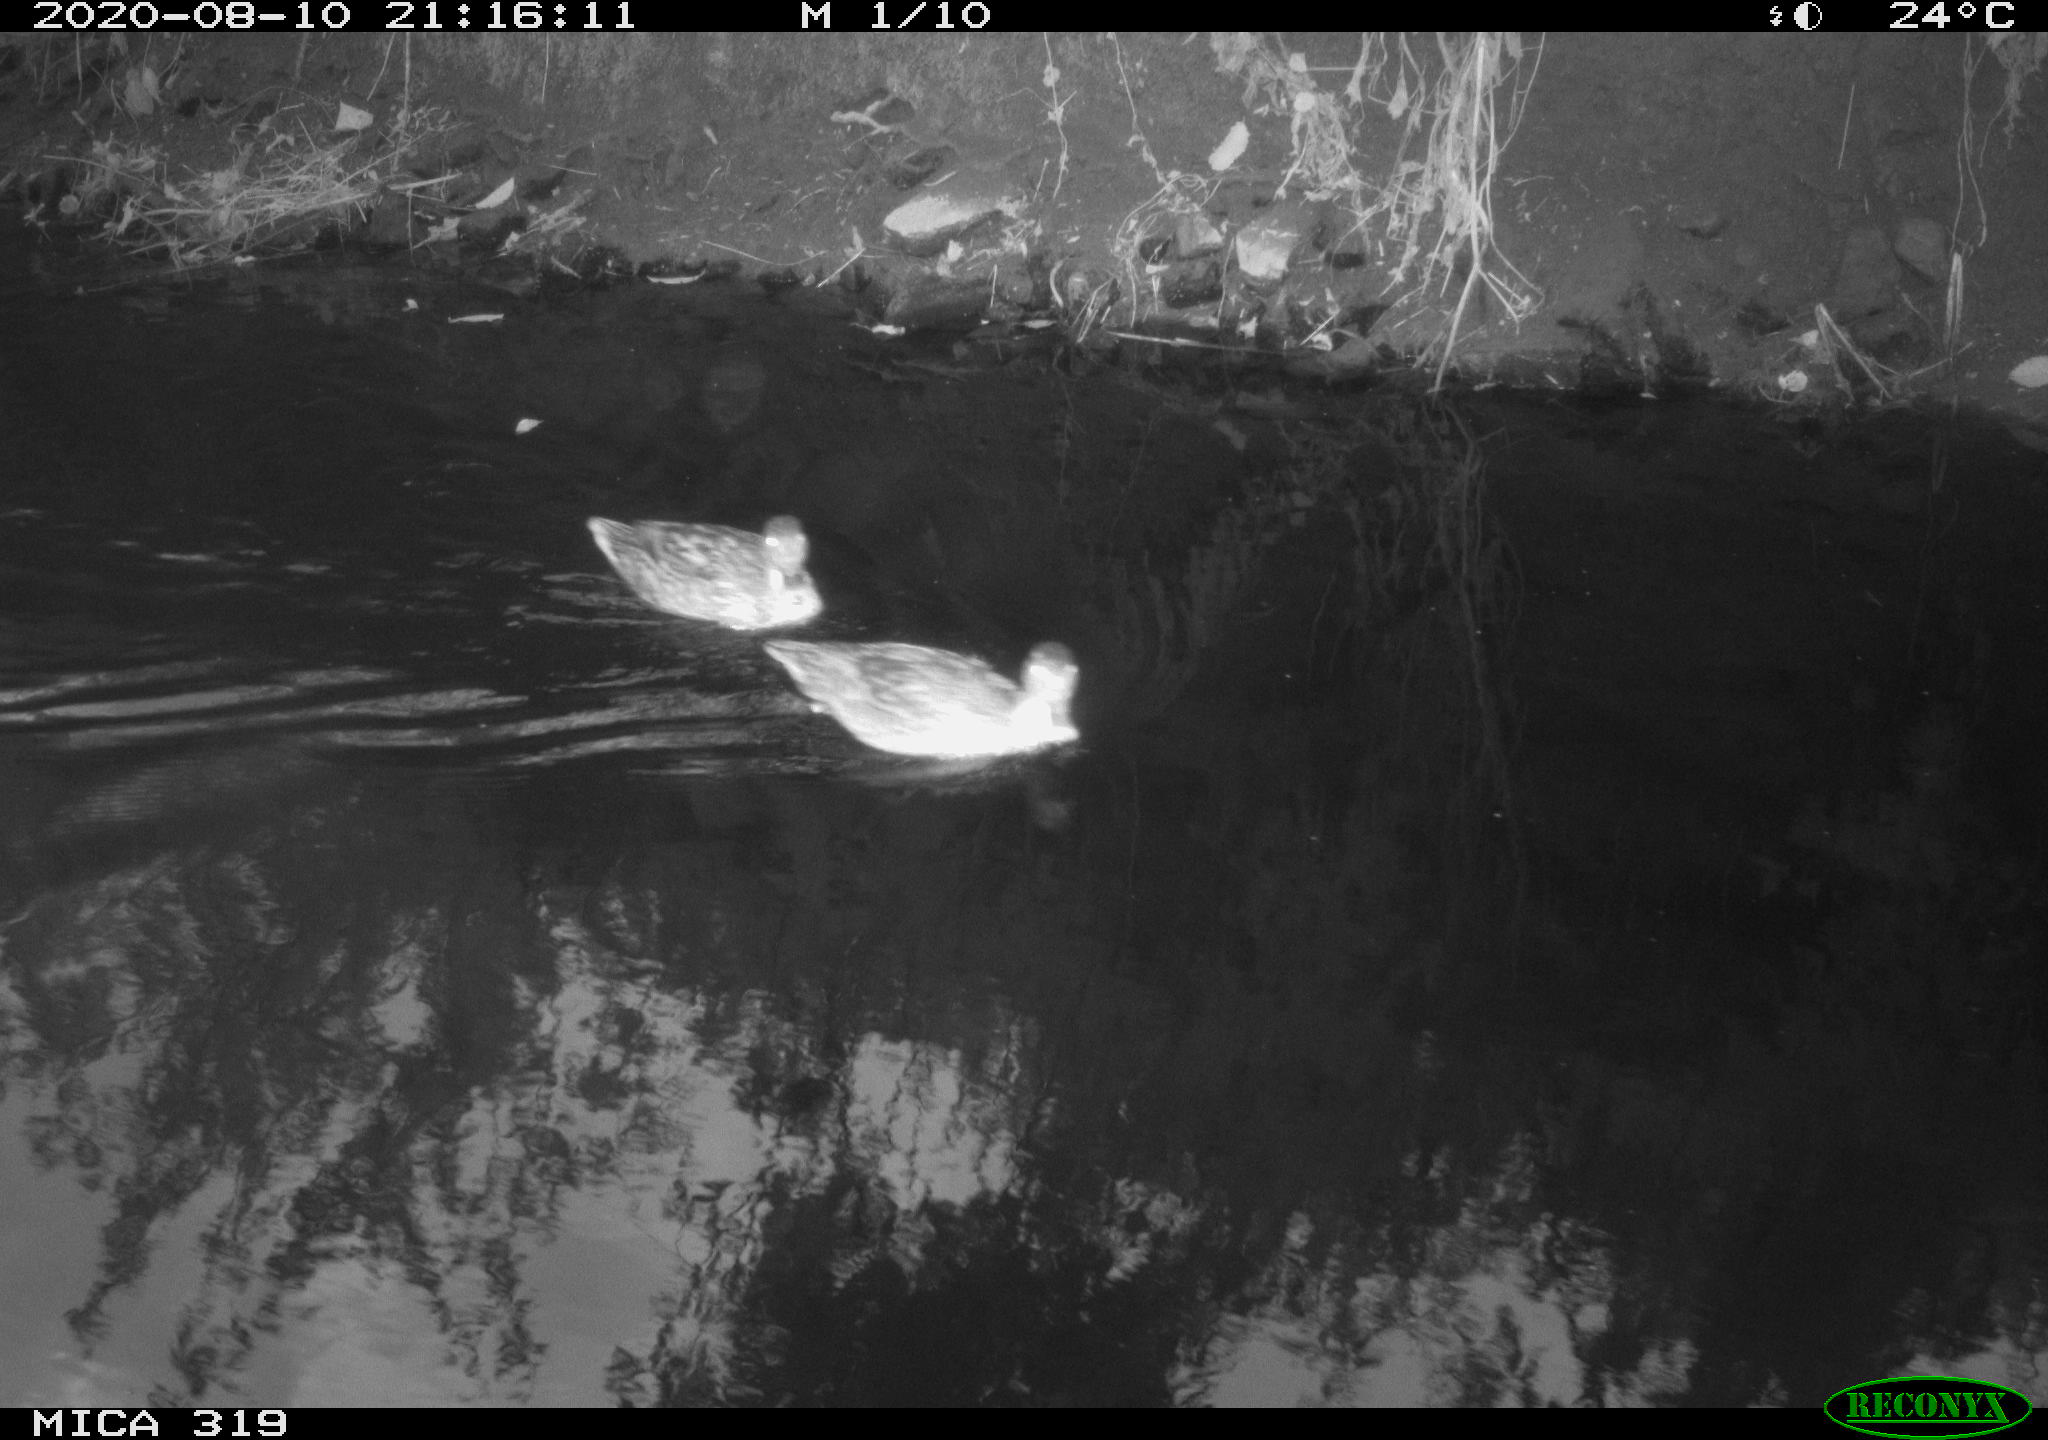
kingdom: Animalia
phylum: Chordata
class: Aves
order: Anseriformes
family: Anatidae
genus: Anas
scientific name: Anas platyrhynchos
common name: Mallard
